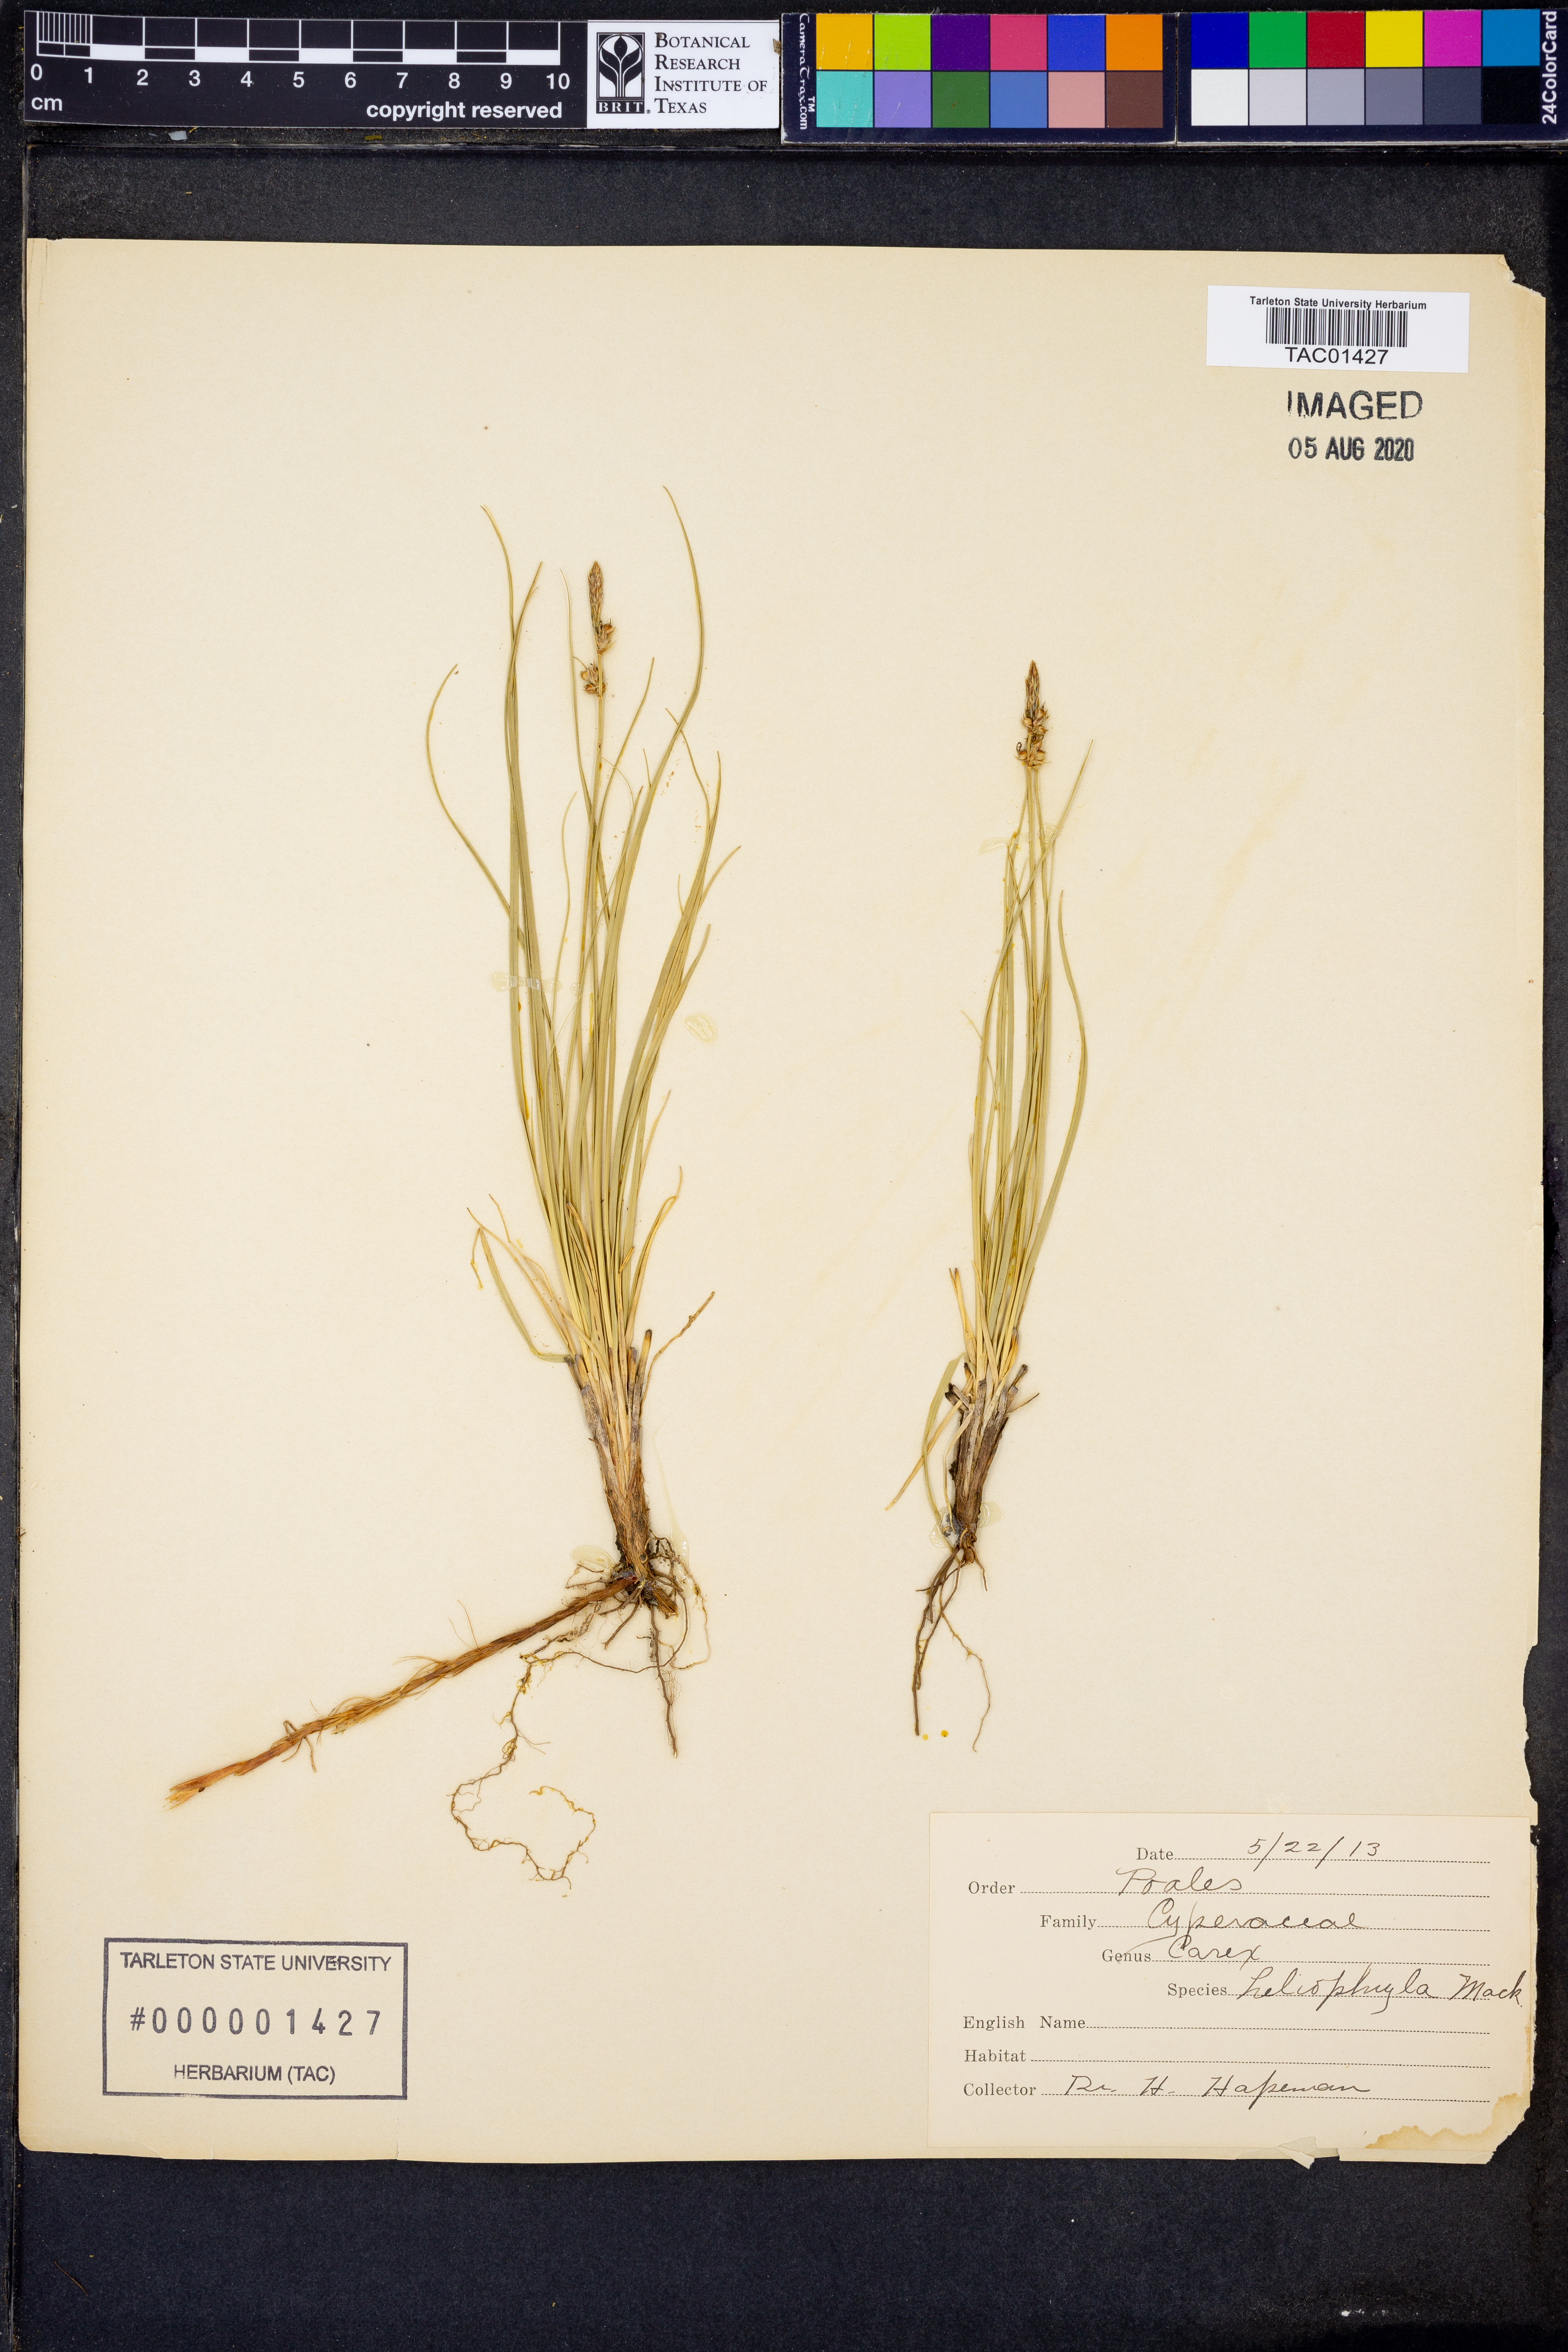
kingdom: Plantae
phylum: Tracheophyta
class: Liliopsida
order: Poales
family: Cyperaceae
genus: Carex
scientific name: Carex inops
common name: Long-stolon sedge
